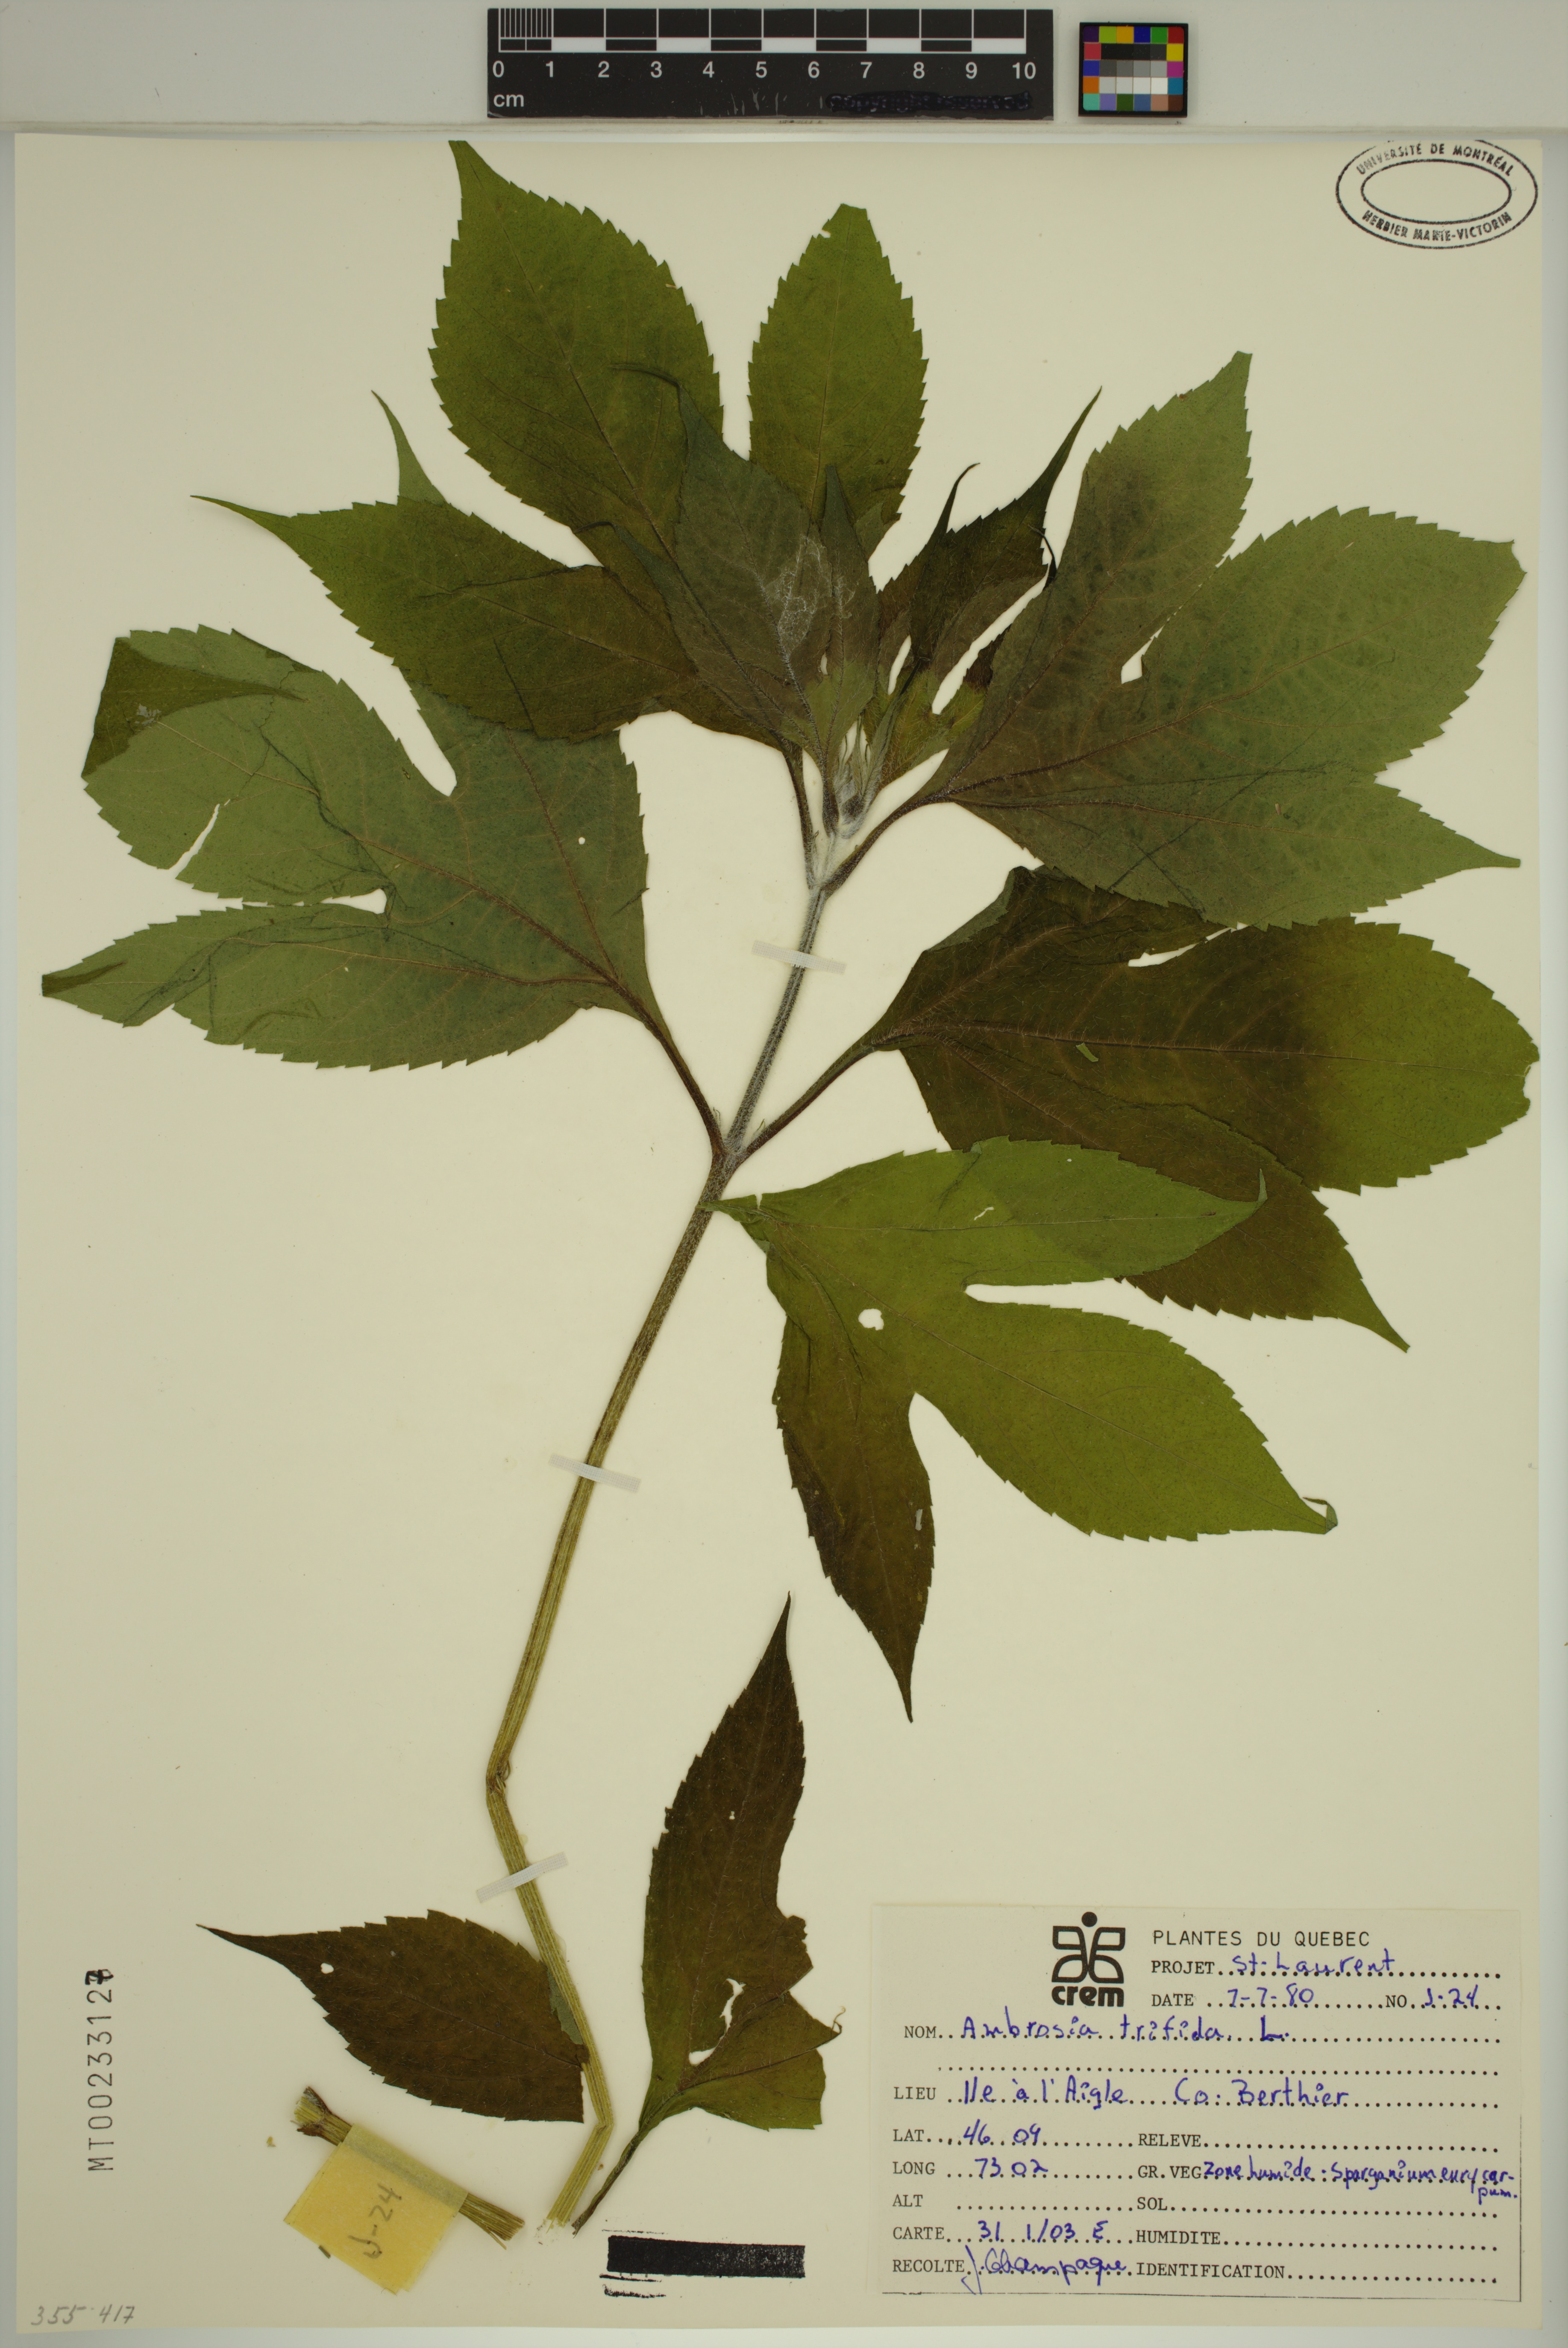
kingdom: Plantae
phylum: Tracheophyta
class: Magnoliopsida
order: Asterales
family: Asteraceae
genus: Ambrosia
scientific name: Ambrosia trifida
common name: Giant ragweed
